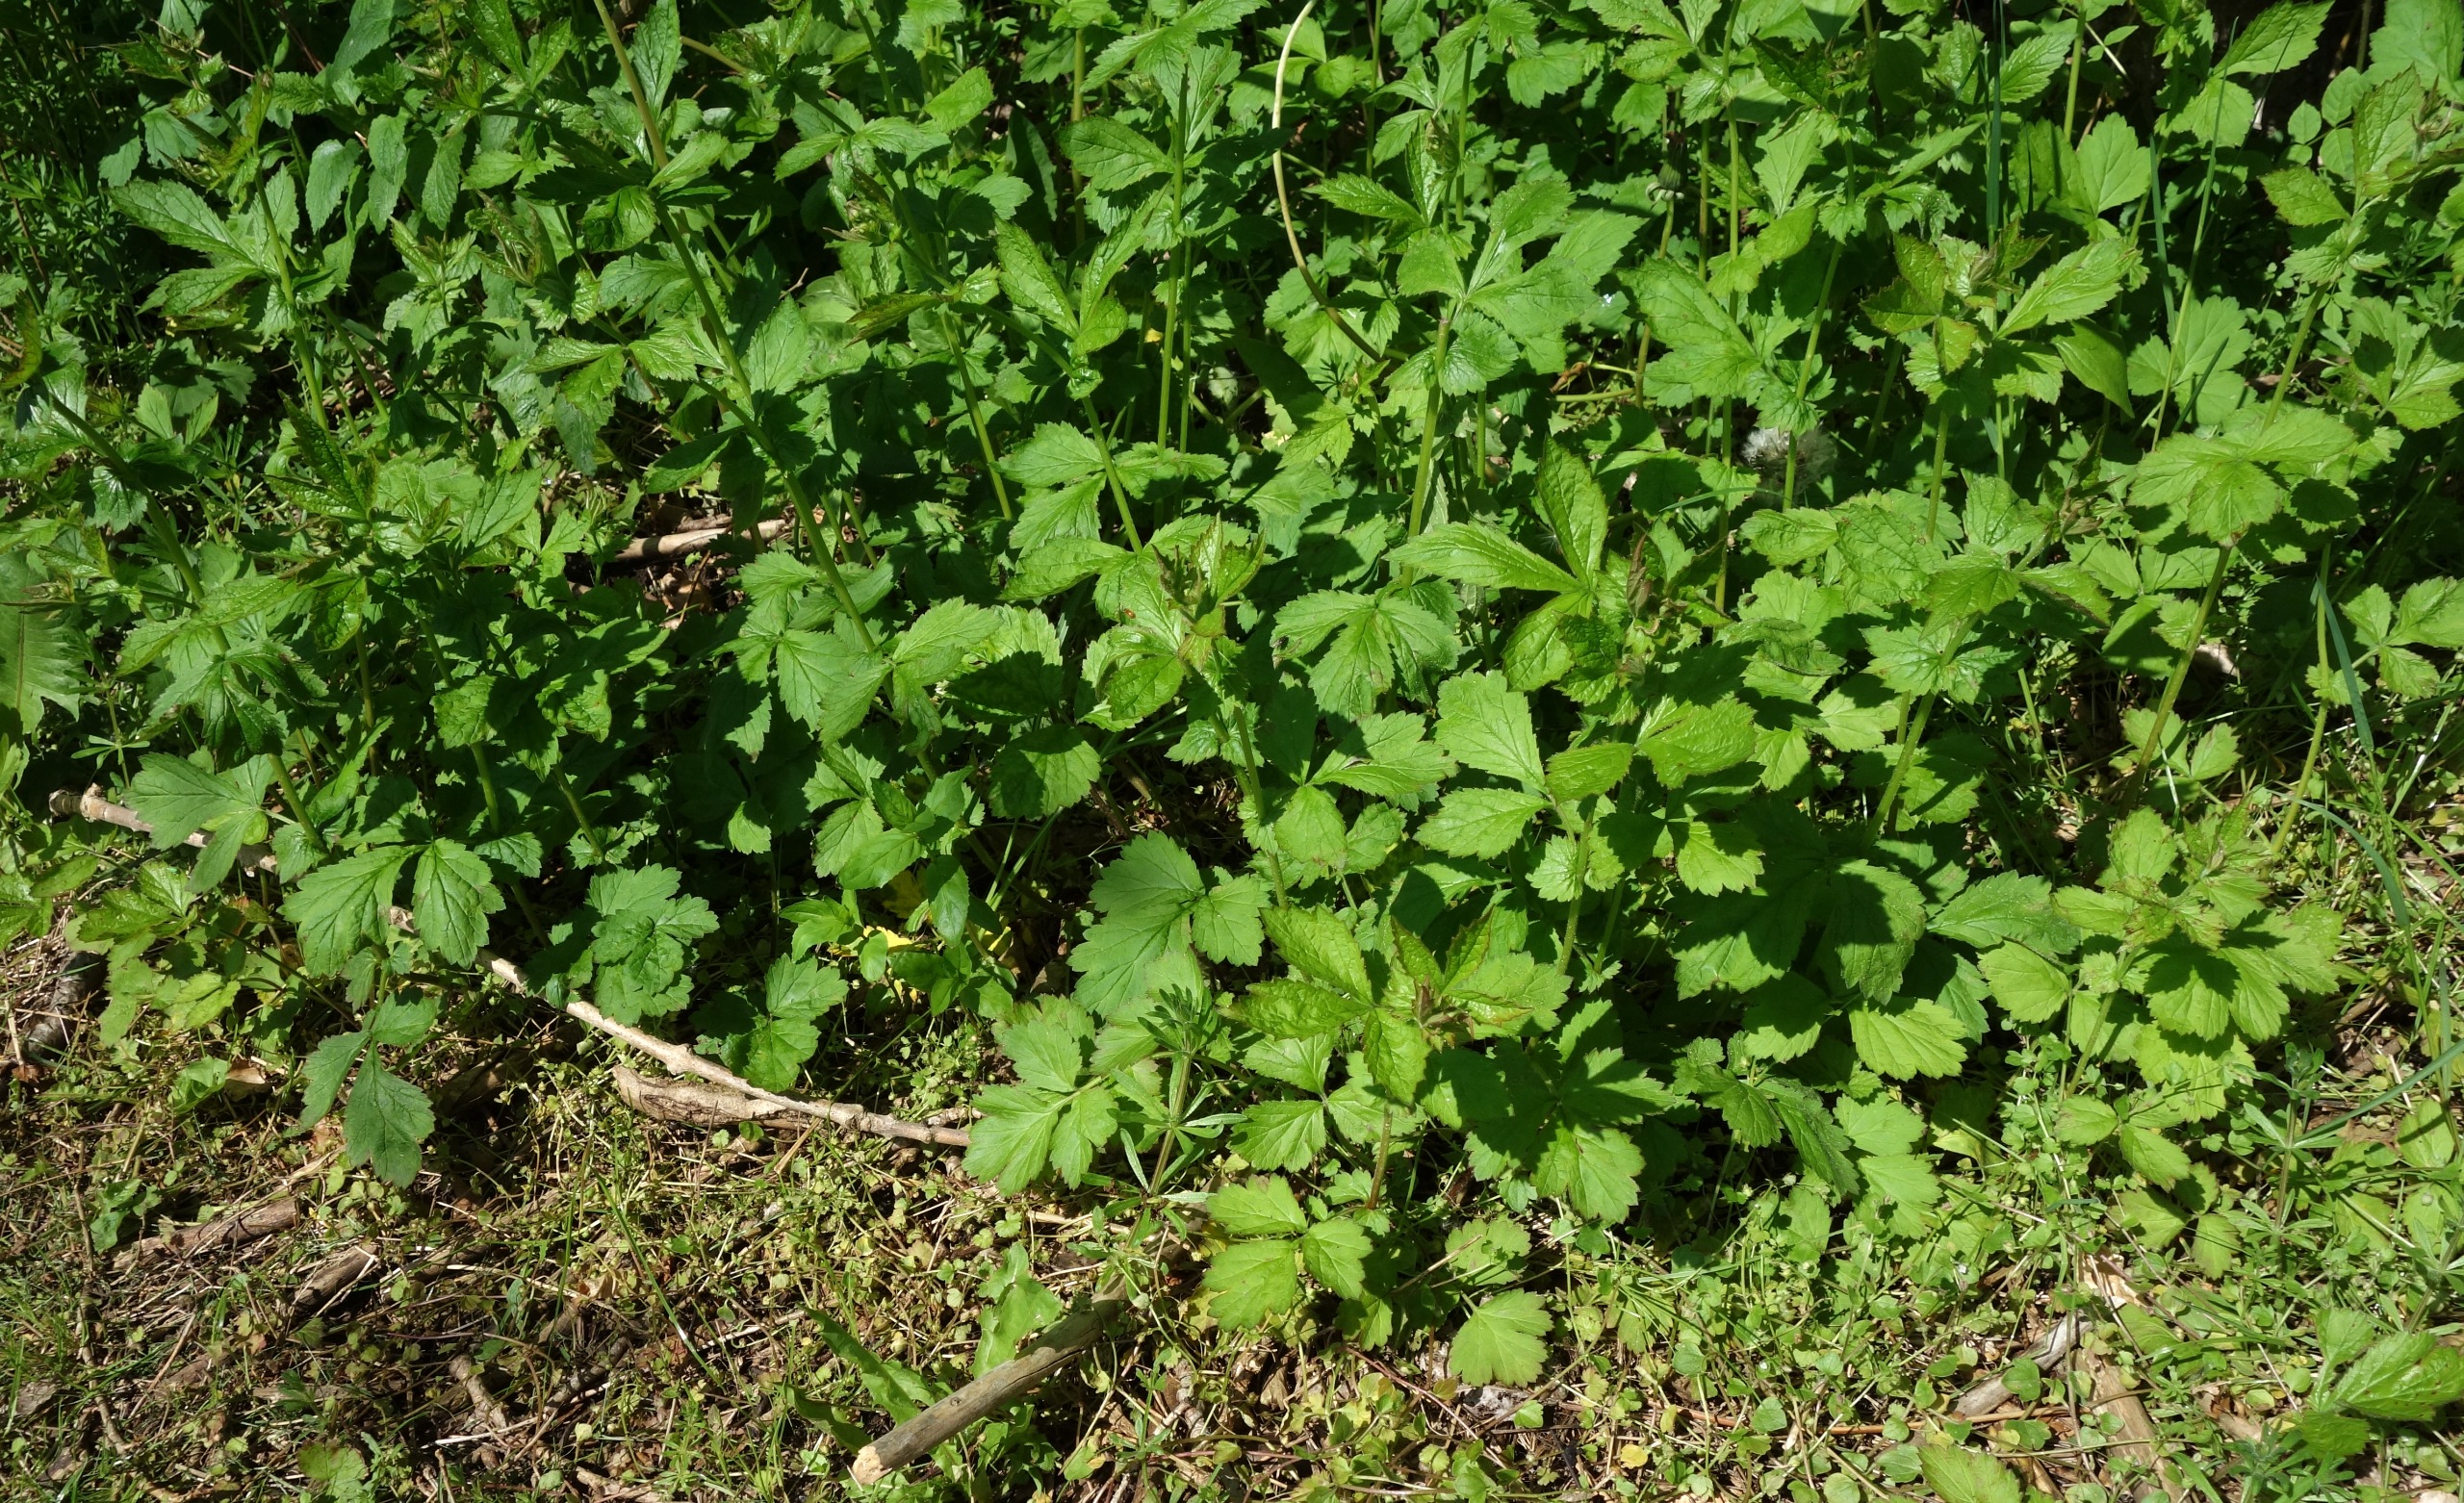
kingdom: Plantae
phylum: Tracheophyta
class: Magnoliopsida
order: Rosales
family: Rosaceae
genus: Geum
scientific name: Geum urbanum
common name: Feber-nellikerod
